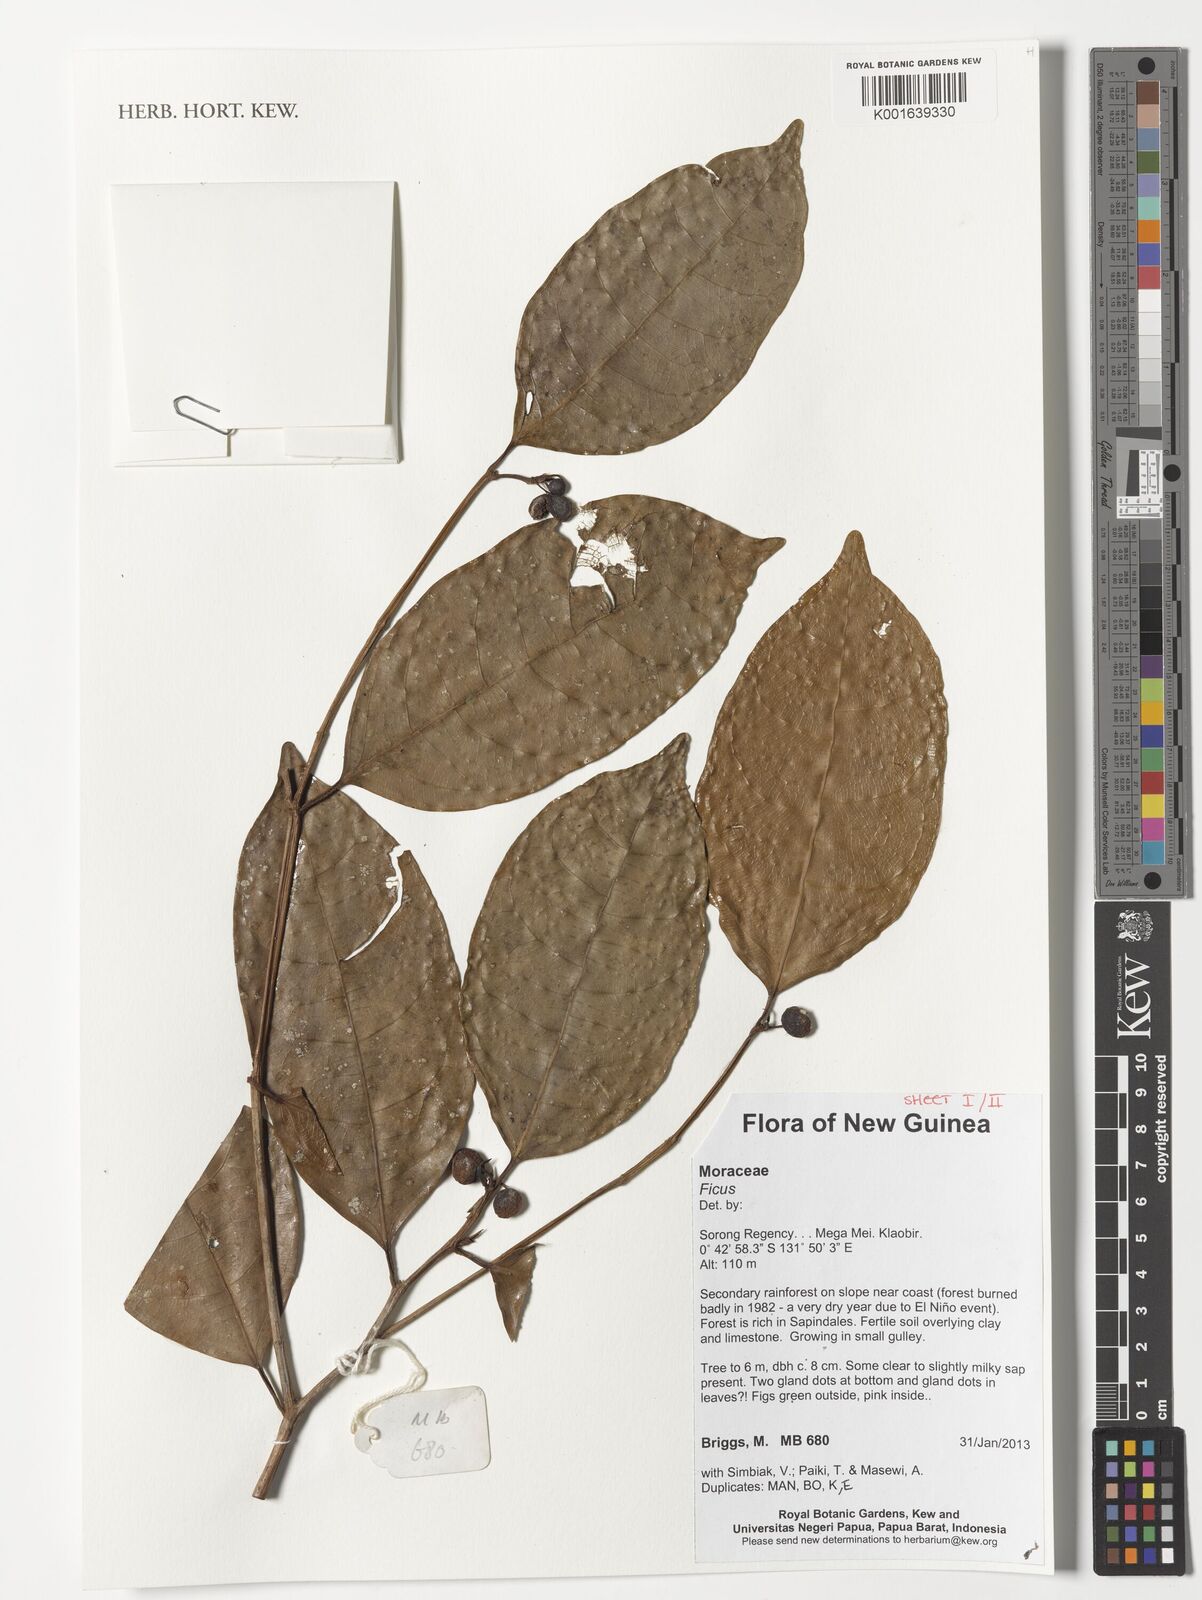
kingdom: Plantae
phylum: Tracheophyta
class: Magnoliopsida
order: Rosales
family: Moraceae
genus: Ficus
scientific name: Ficus
